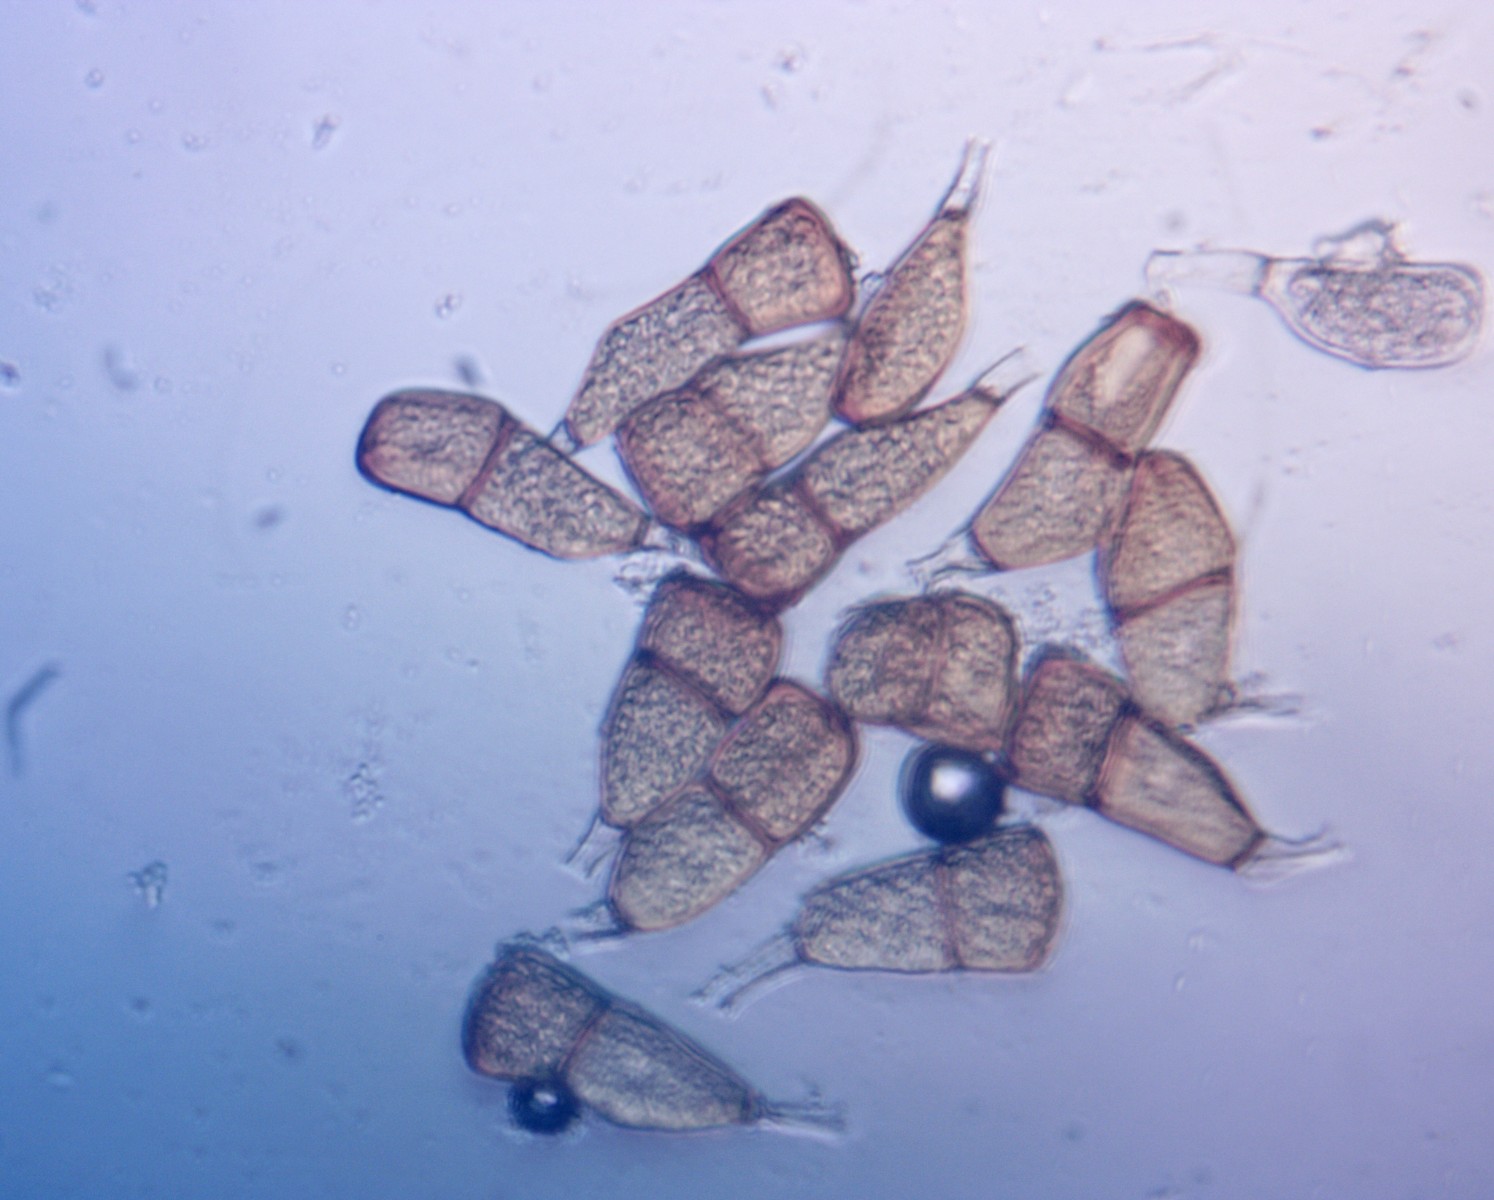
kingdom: Fungi
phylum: Basidiomycota
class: Pucciniomycetes
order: Pucciniales
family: Pucciniaceae
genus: Puccinia
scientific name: Puccinia porri
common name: Allium rust
